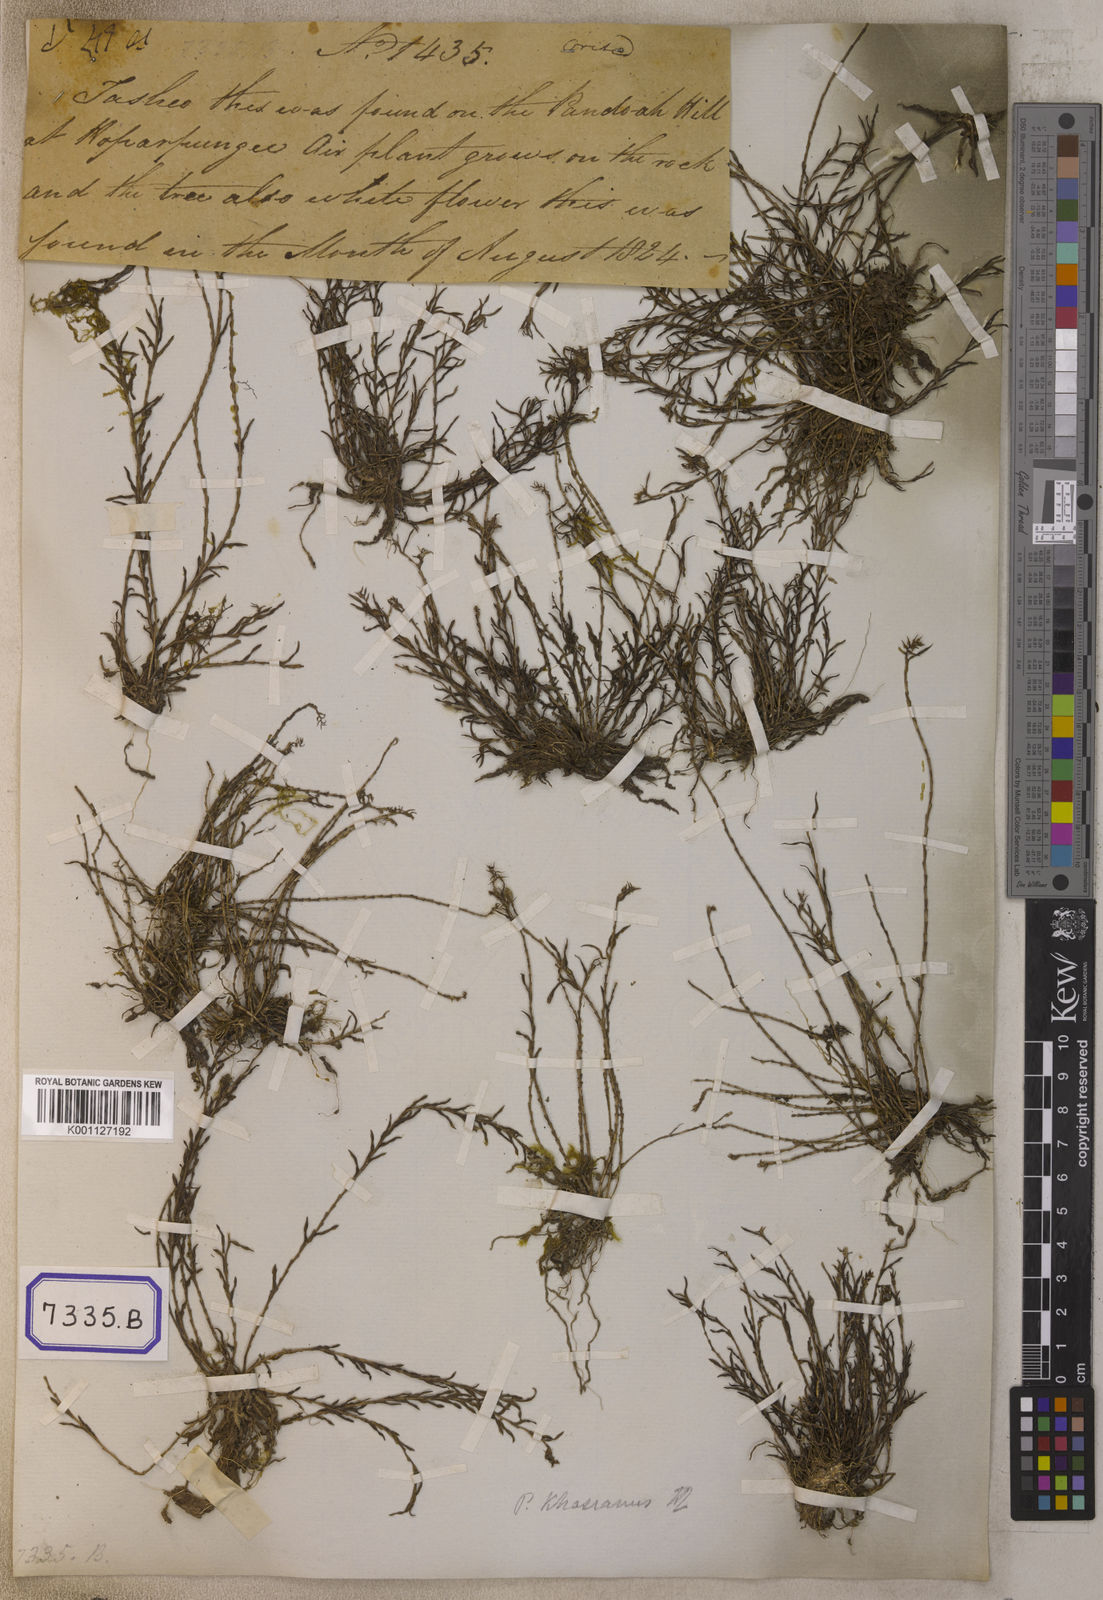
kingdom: Plantae
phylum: Tracheophyta
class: Liliopsida
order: Asparagales
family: Orchidaceae
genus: Podochilus
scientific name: Podochilus microphyllus
